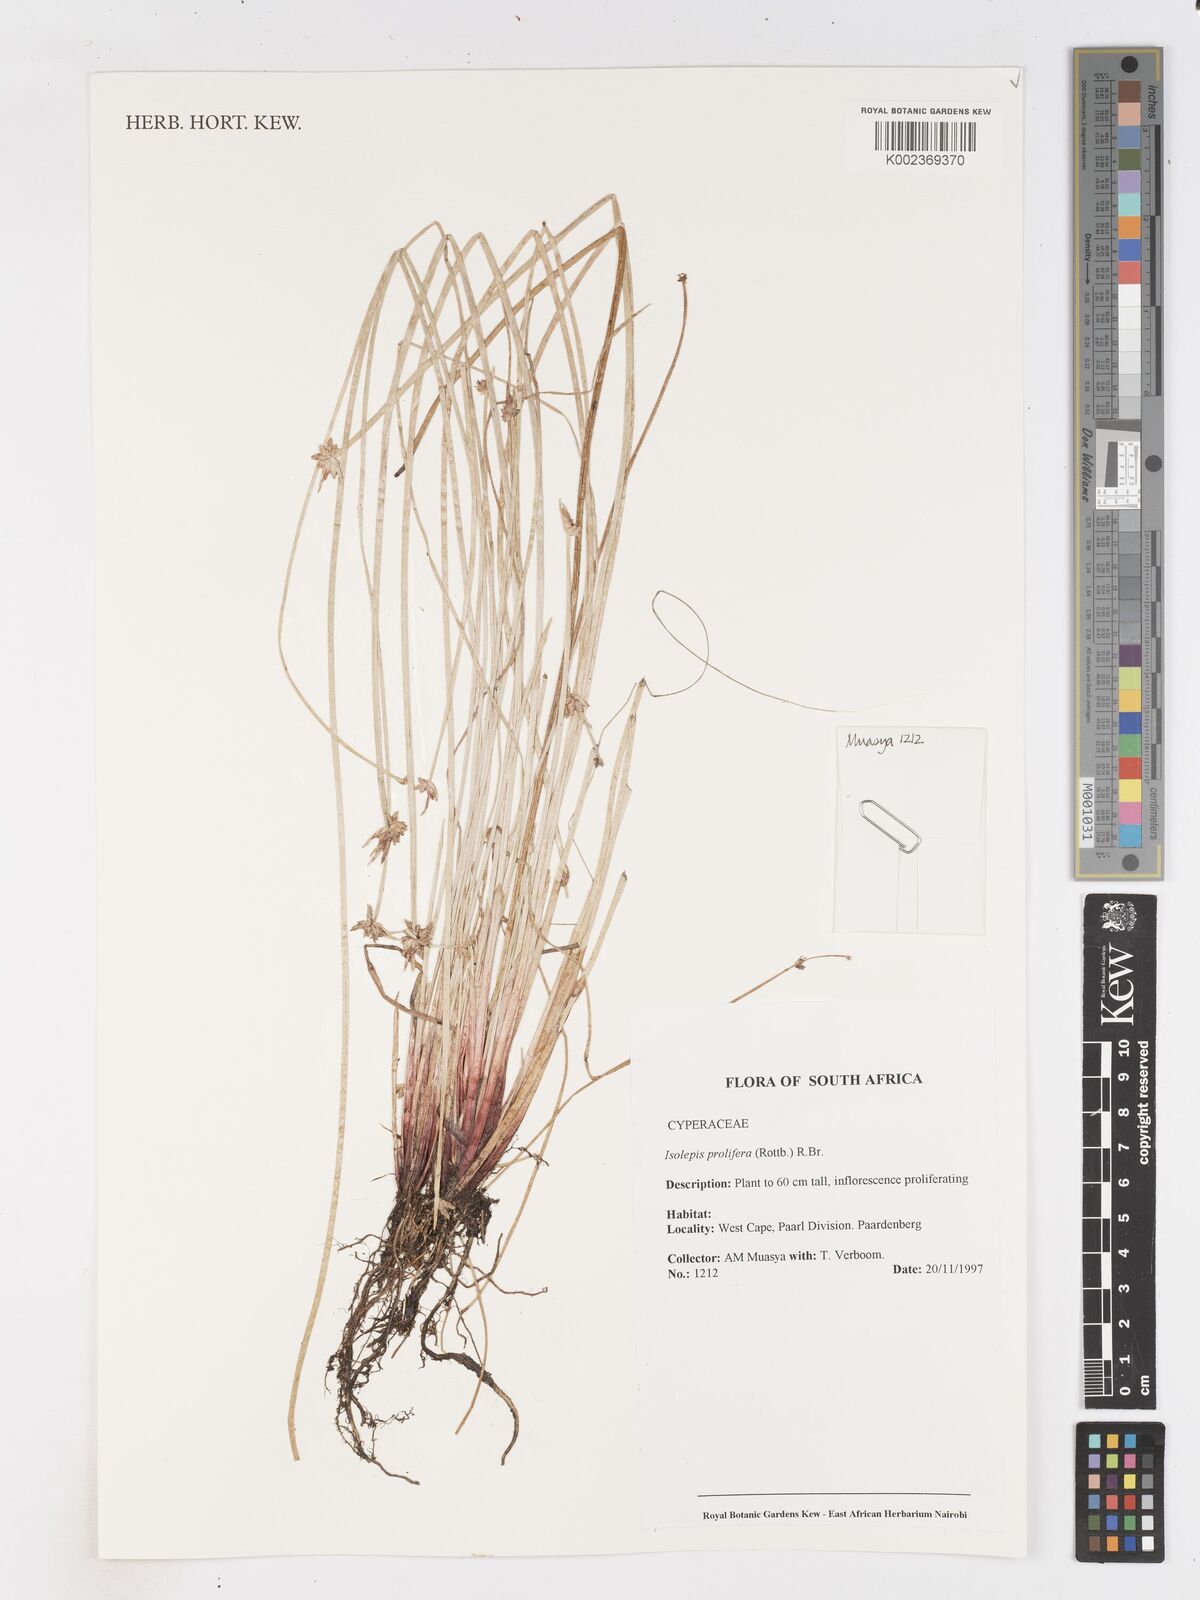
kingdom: Plantae
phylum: Tracheophyta
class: Liliopsida
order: Poales
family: Cyperaceae
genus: Isolepis
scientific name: Isolepis prolifera
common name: Proliferating bulrush
